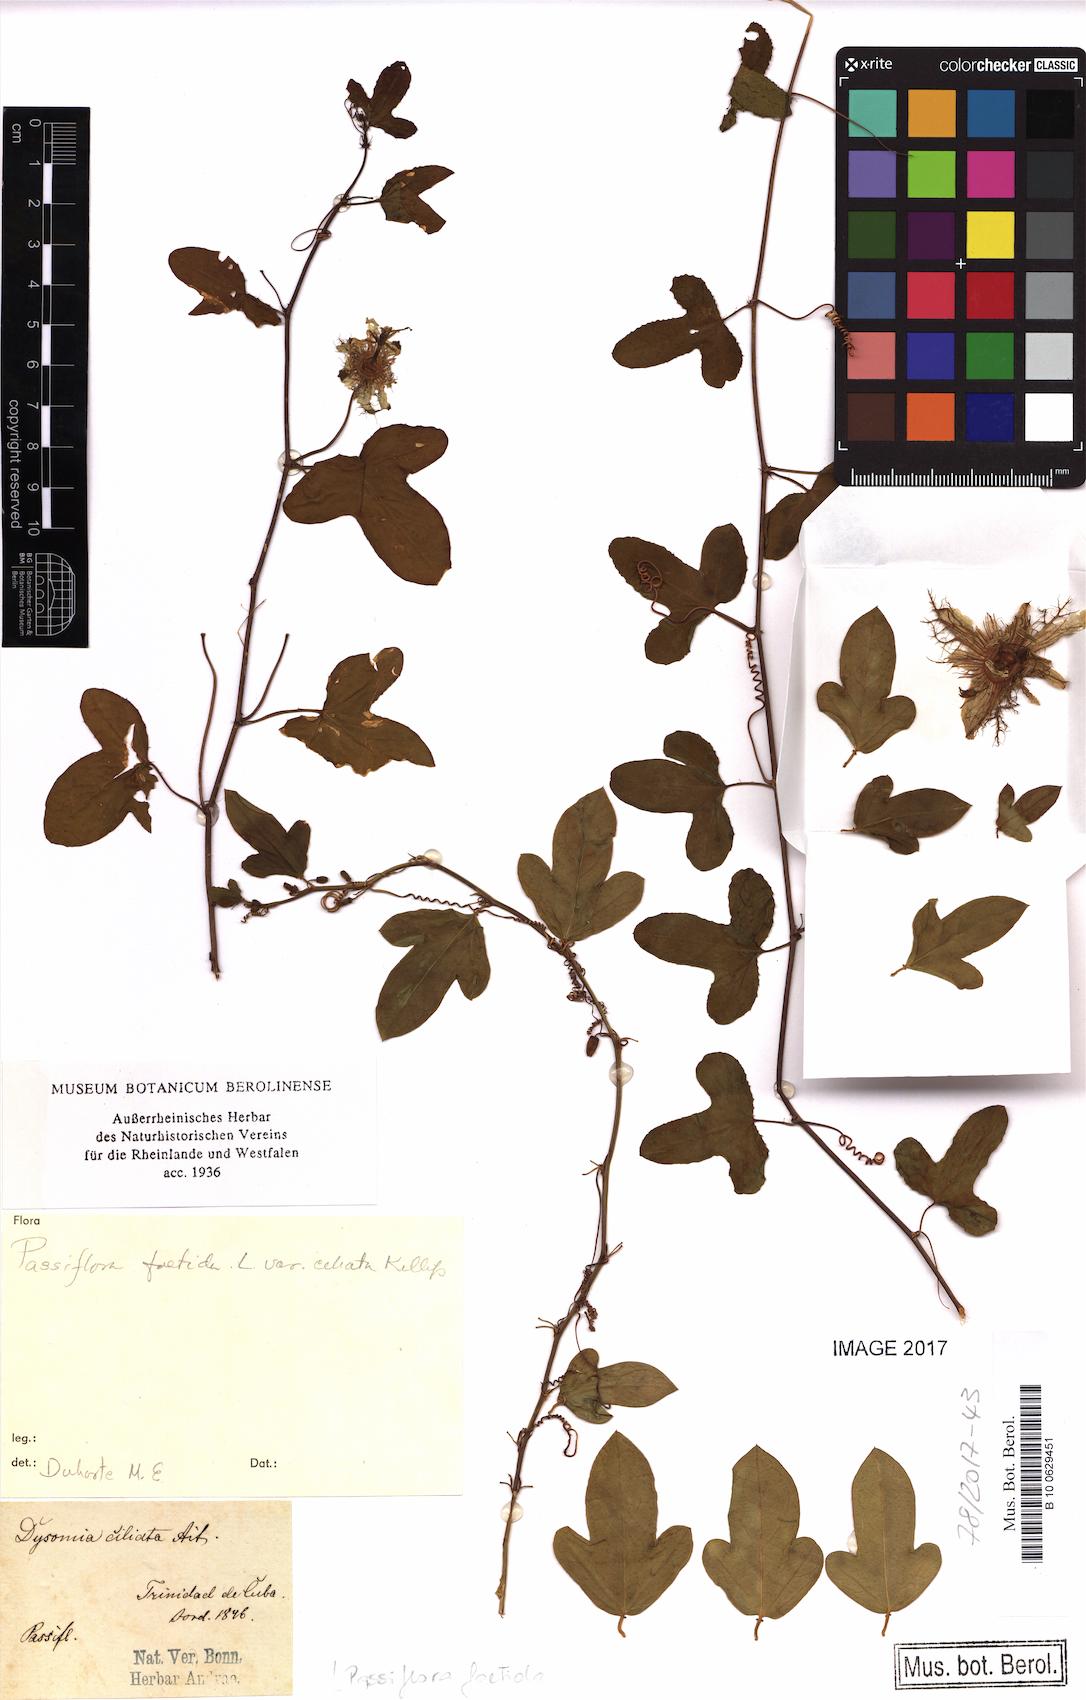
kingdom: Plantae
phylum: Tracheophyta
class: Magnoliopsida
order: Malpighiales
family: Passifloraceae
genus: Passiflora
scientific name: Passiflora foetida
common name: Fetid passionflower
